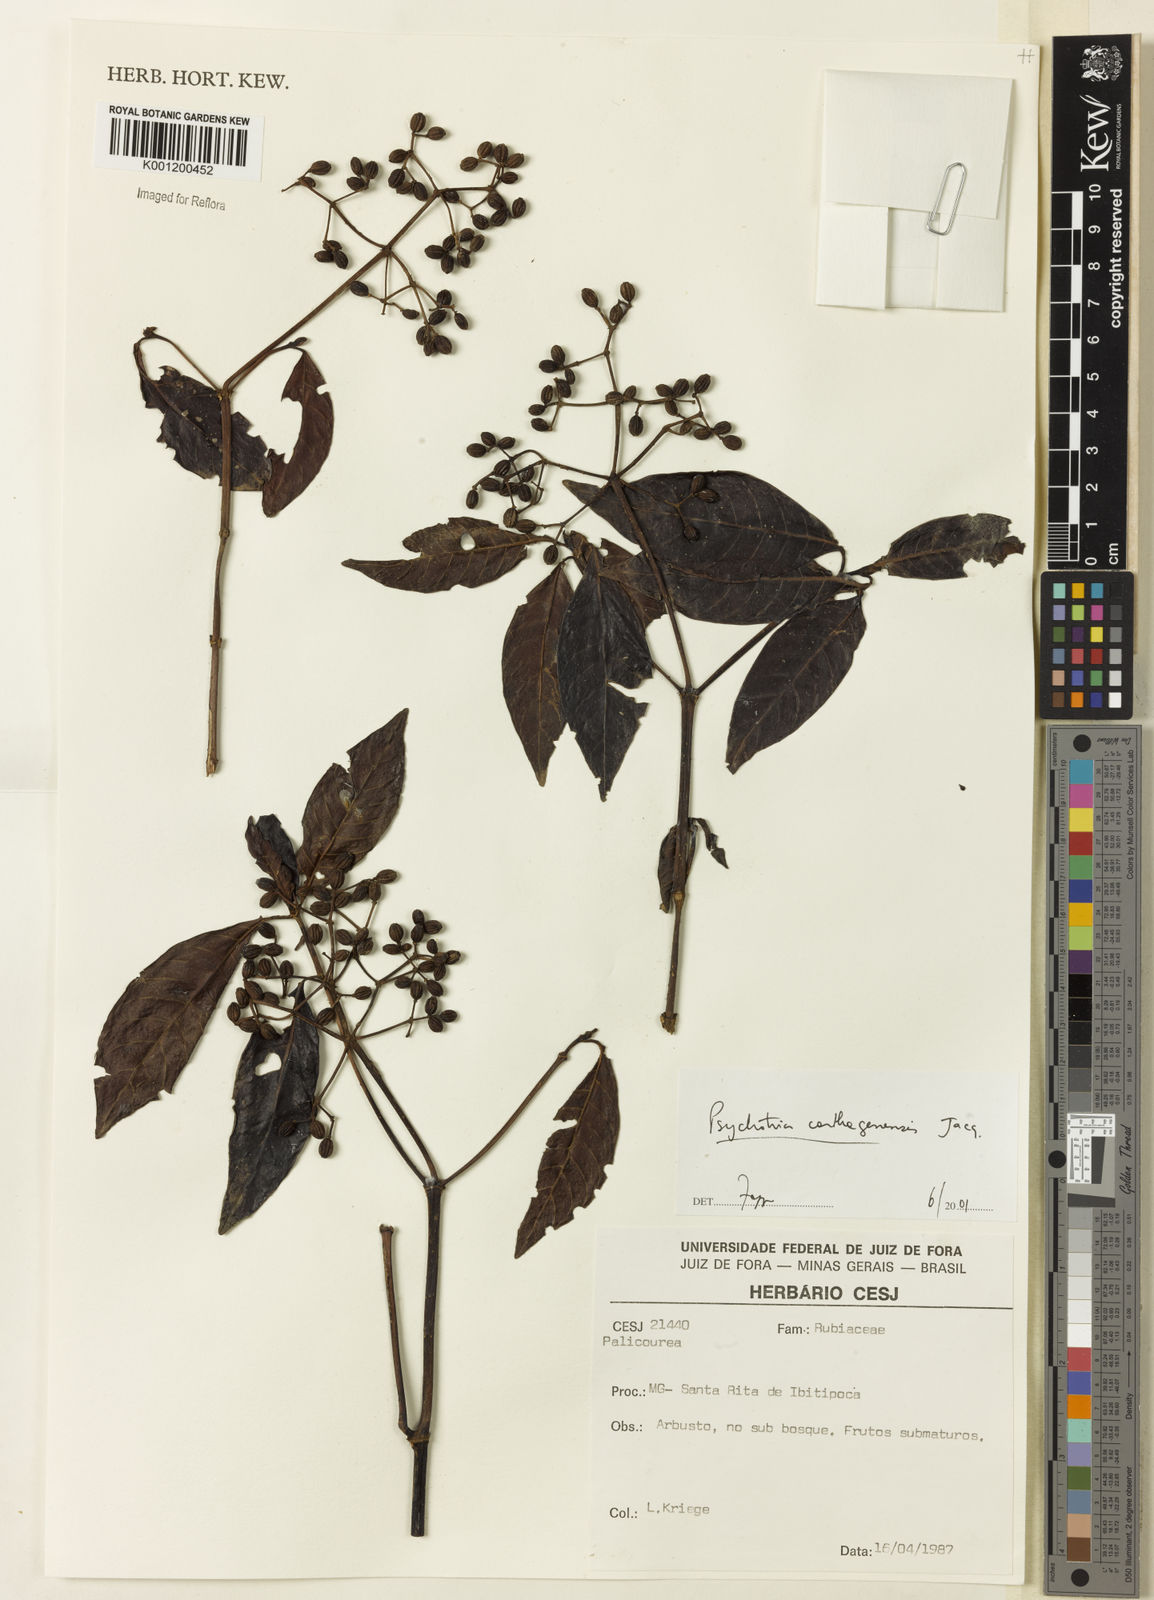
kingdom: Plantae
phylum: Tracheophyta
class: Magnoliopsida
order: Gentianales
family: Rubiaceae
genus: Psychotria
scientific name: Psychotria carthagenensis
